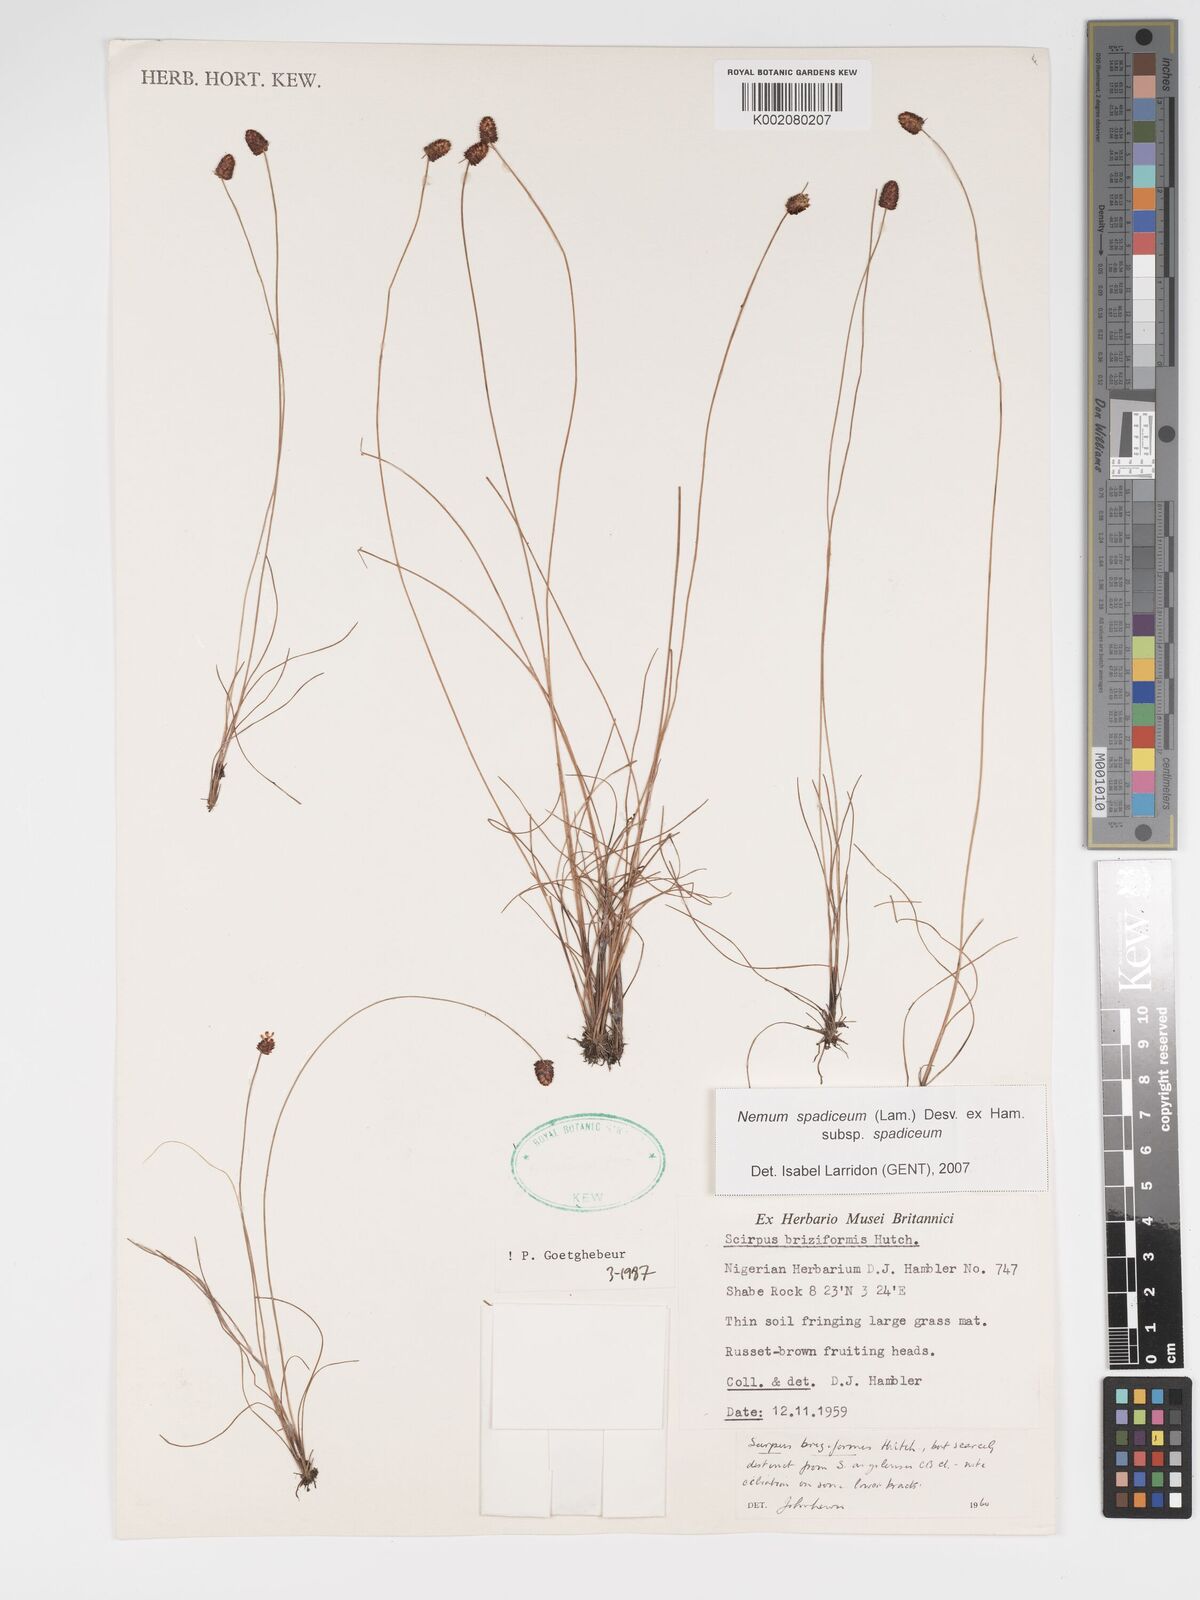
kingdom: Plantae
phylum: Tracheophyta
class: Liliopsida
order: Poales
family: Cyperaceae
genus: Bulbostylis
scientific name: Bulbostylis briziformis
